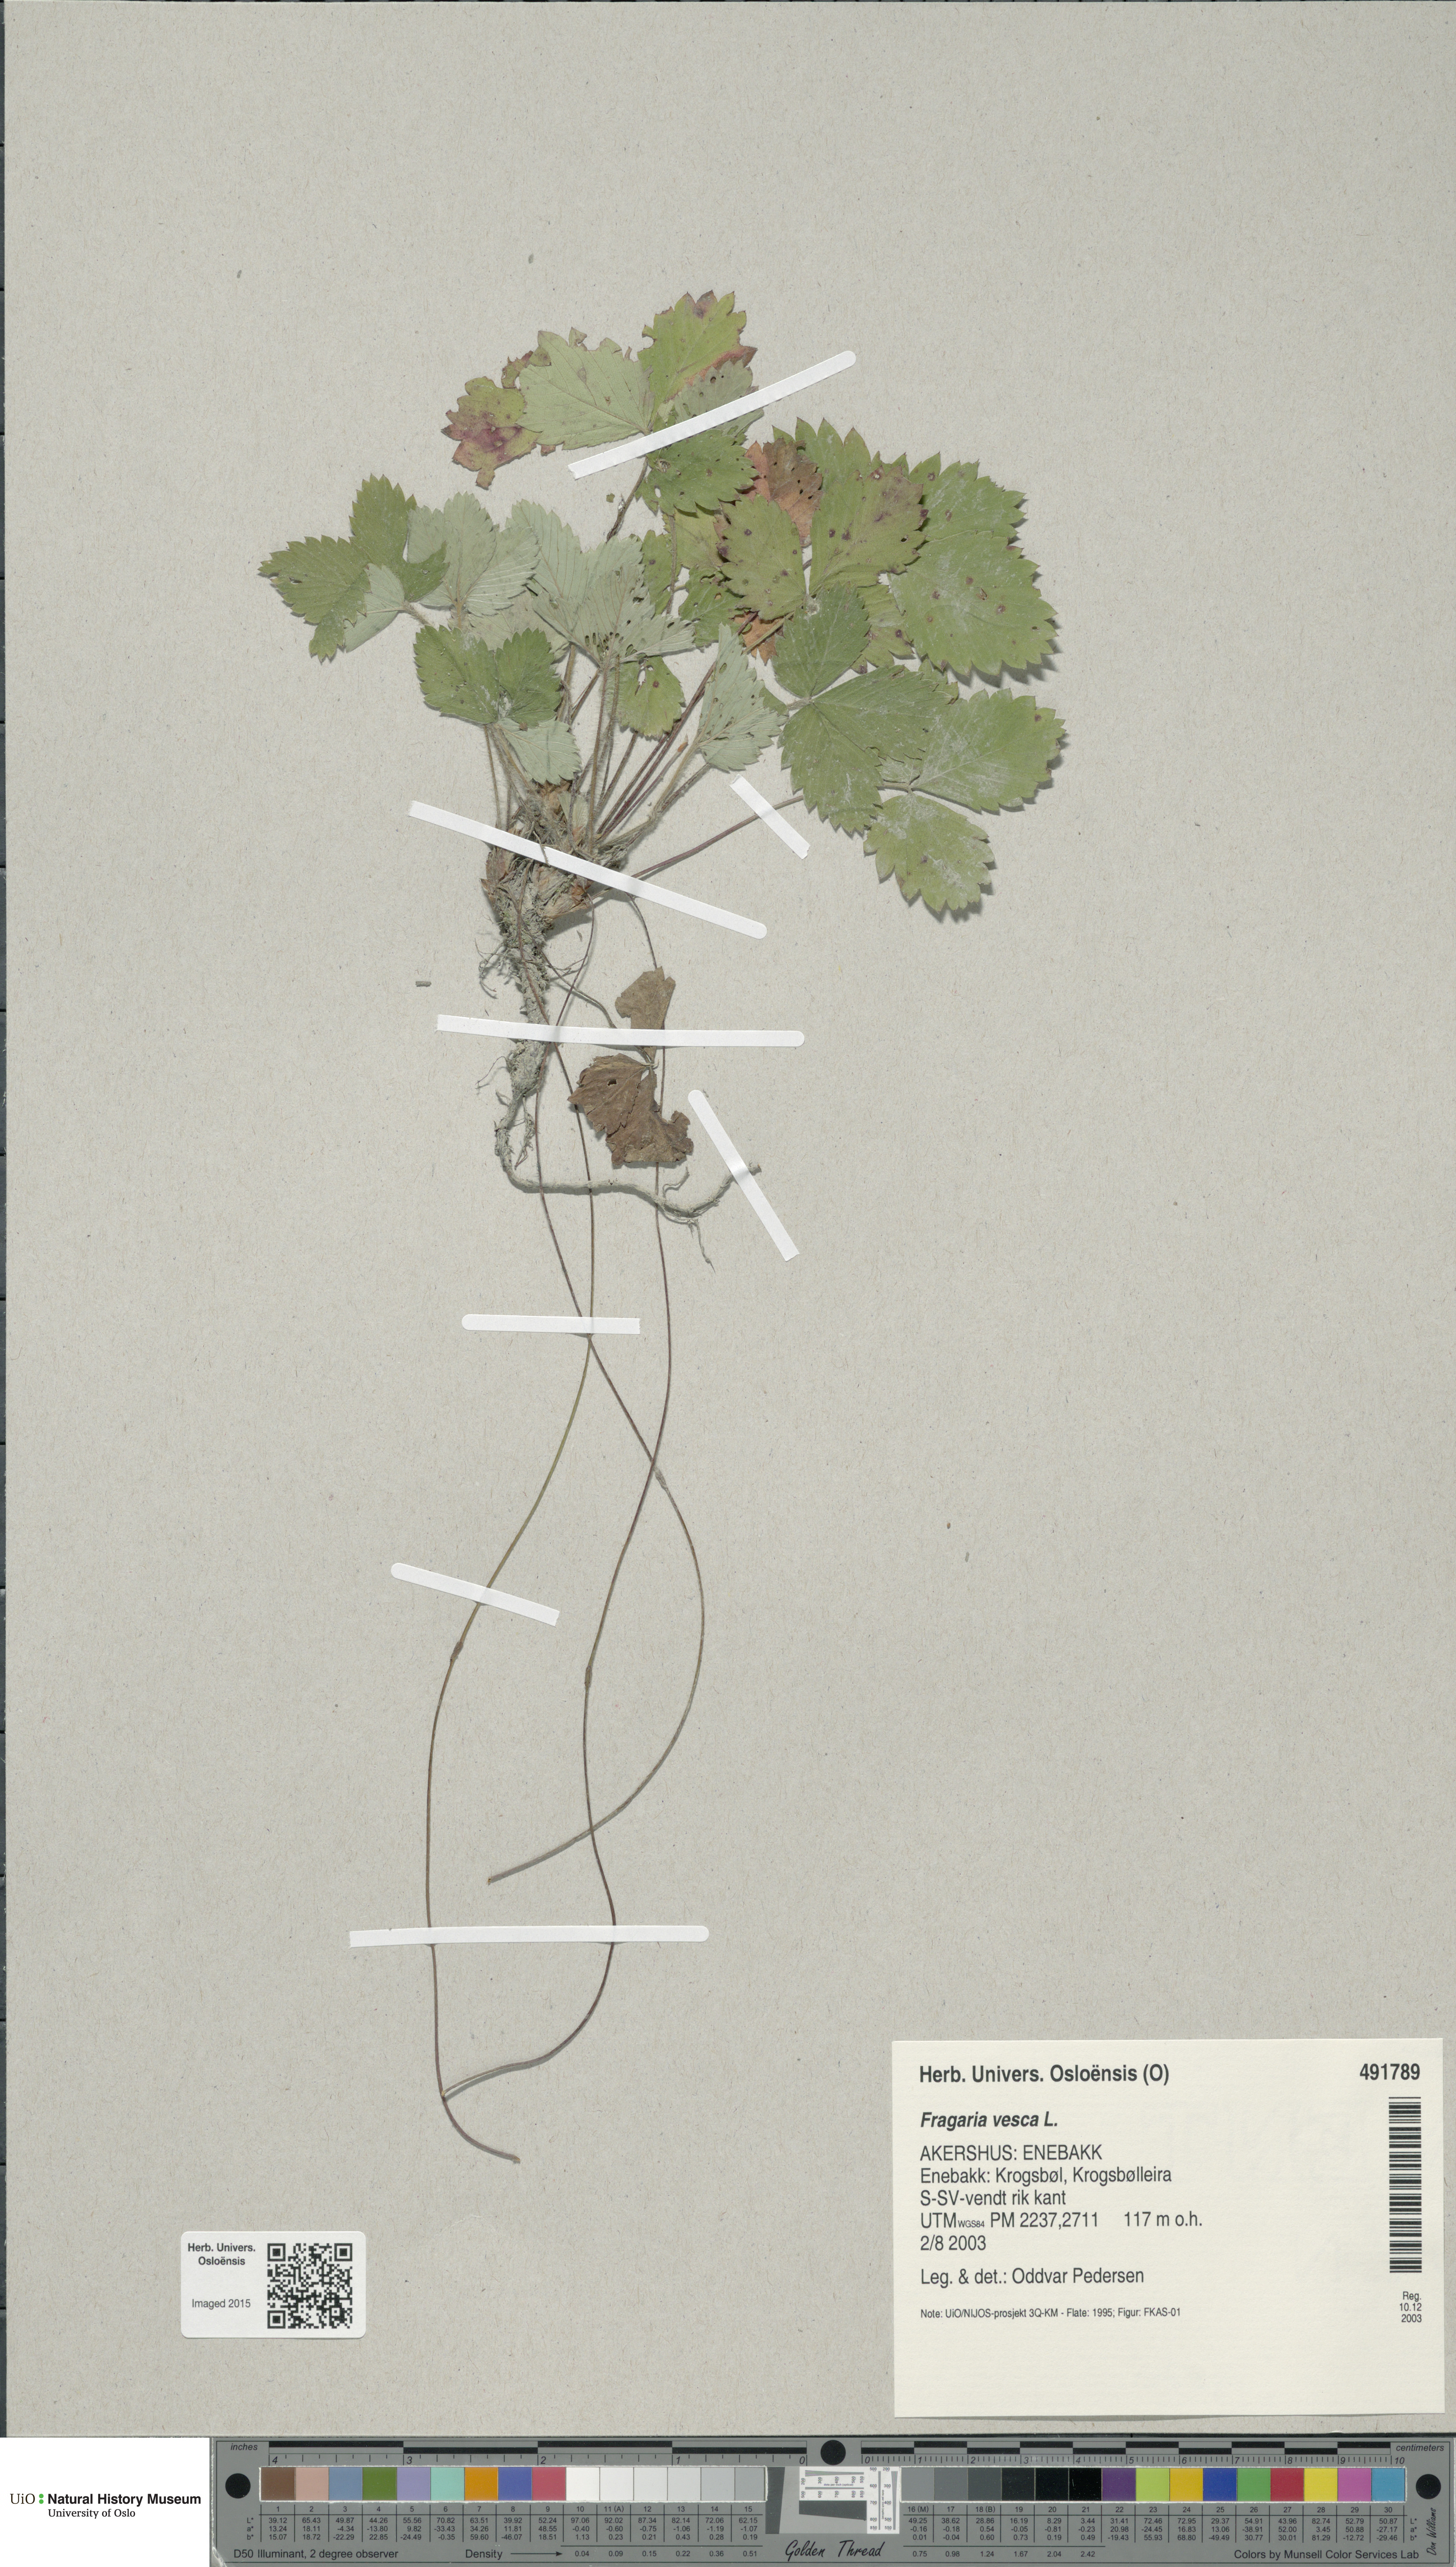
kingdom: Plantae
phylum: Tracheophyta
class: Magnoliopsida
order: Rosales
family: Rosaceae
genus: Fragaria
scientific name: Fragaria vesca
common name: Wild strawberry
